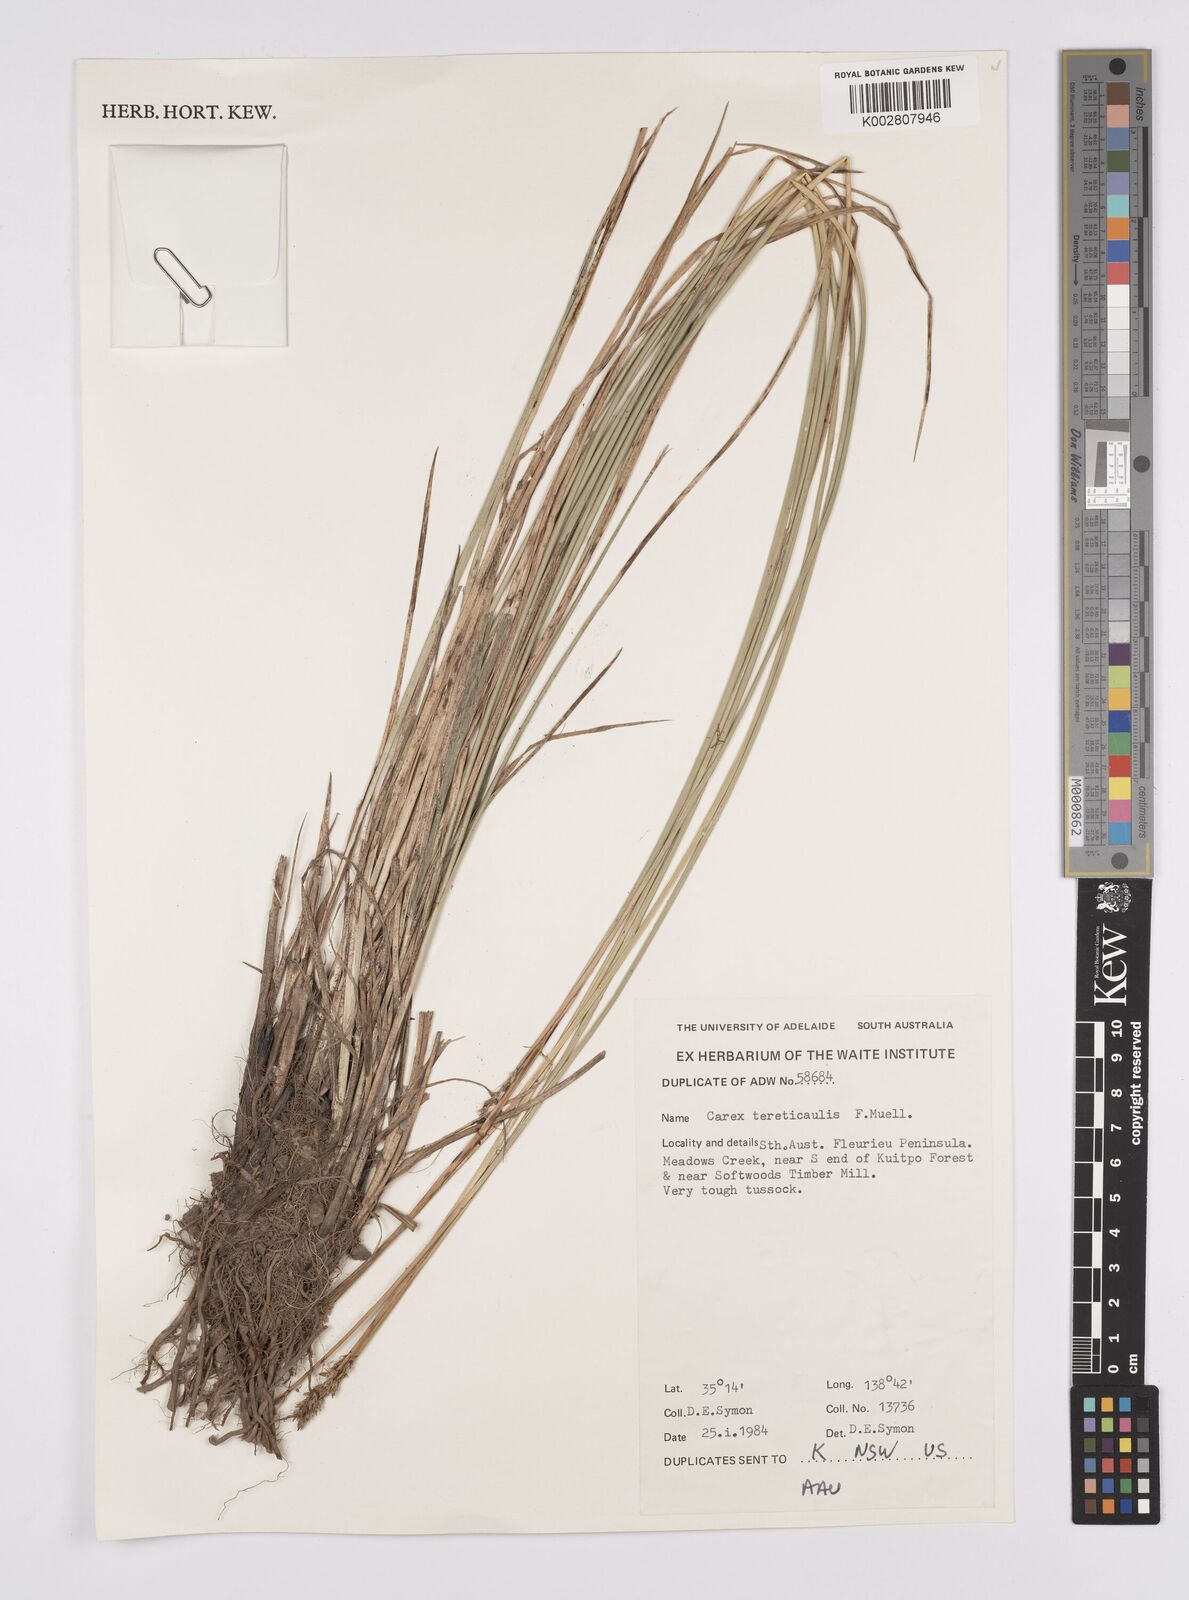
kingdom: Plantae
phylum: Tracheophyta
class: Liliopsida
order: Poales
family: Cyperaceae
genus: Carex
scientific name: Carex tereticaulis
